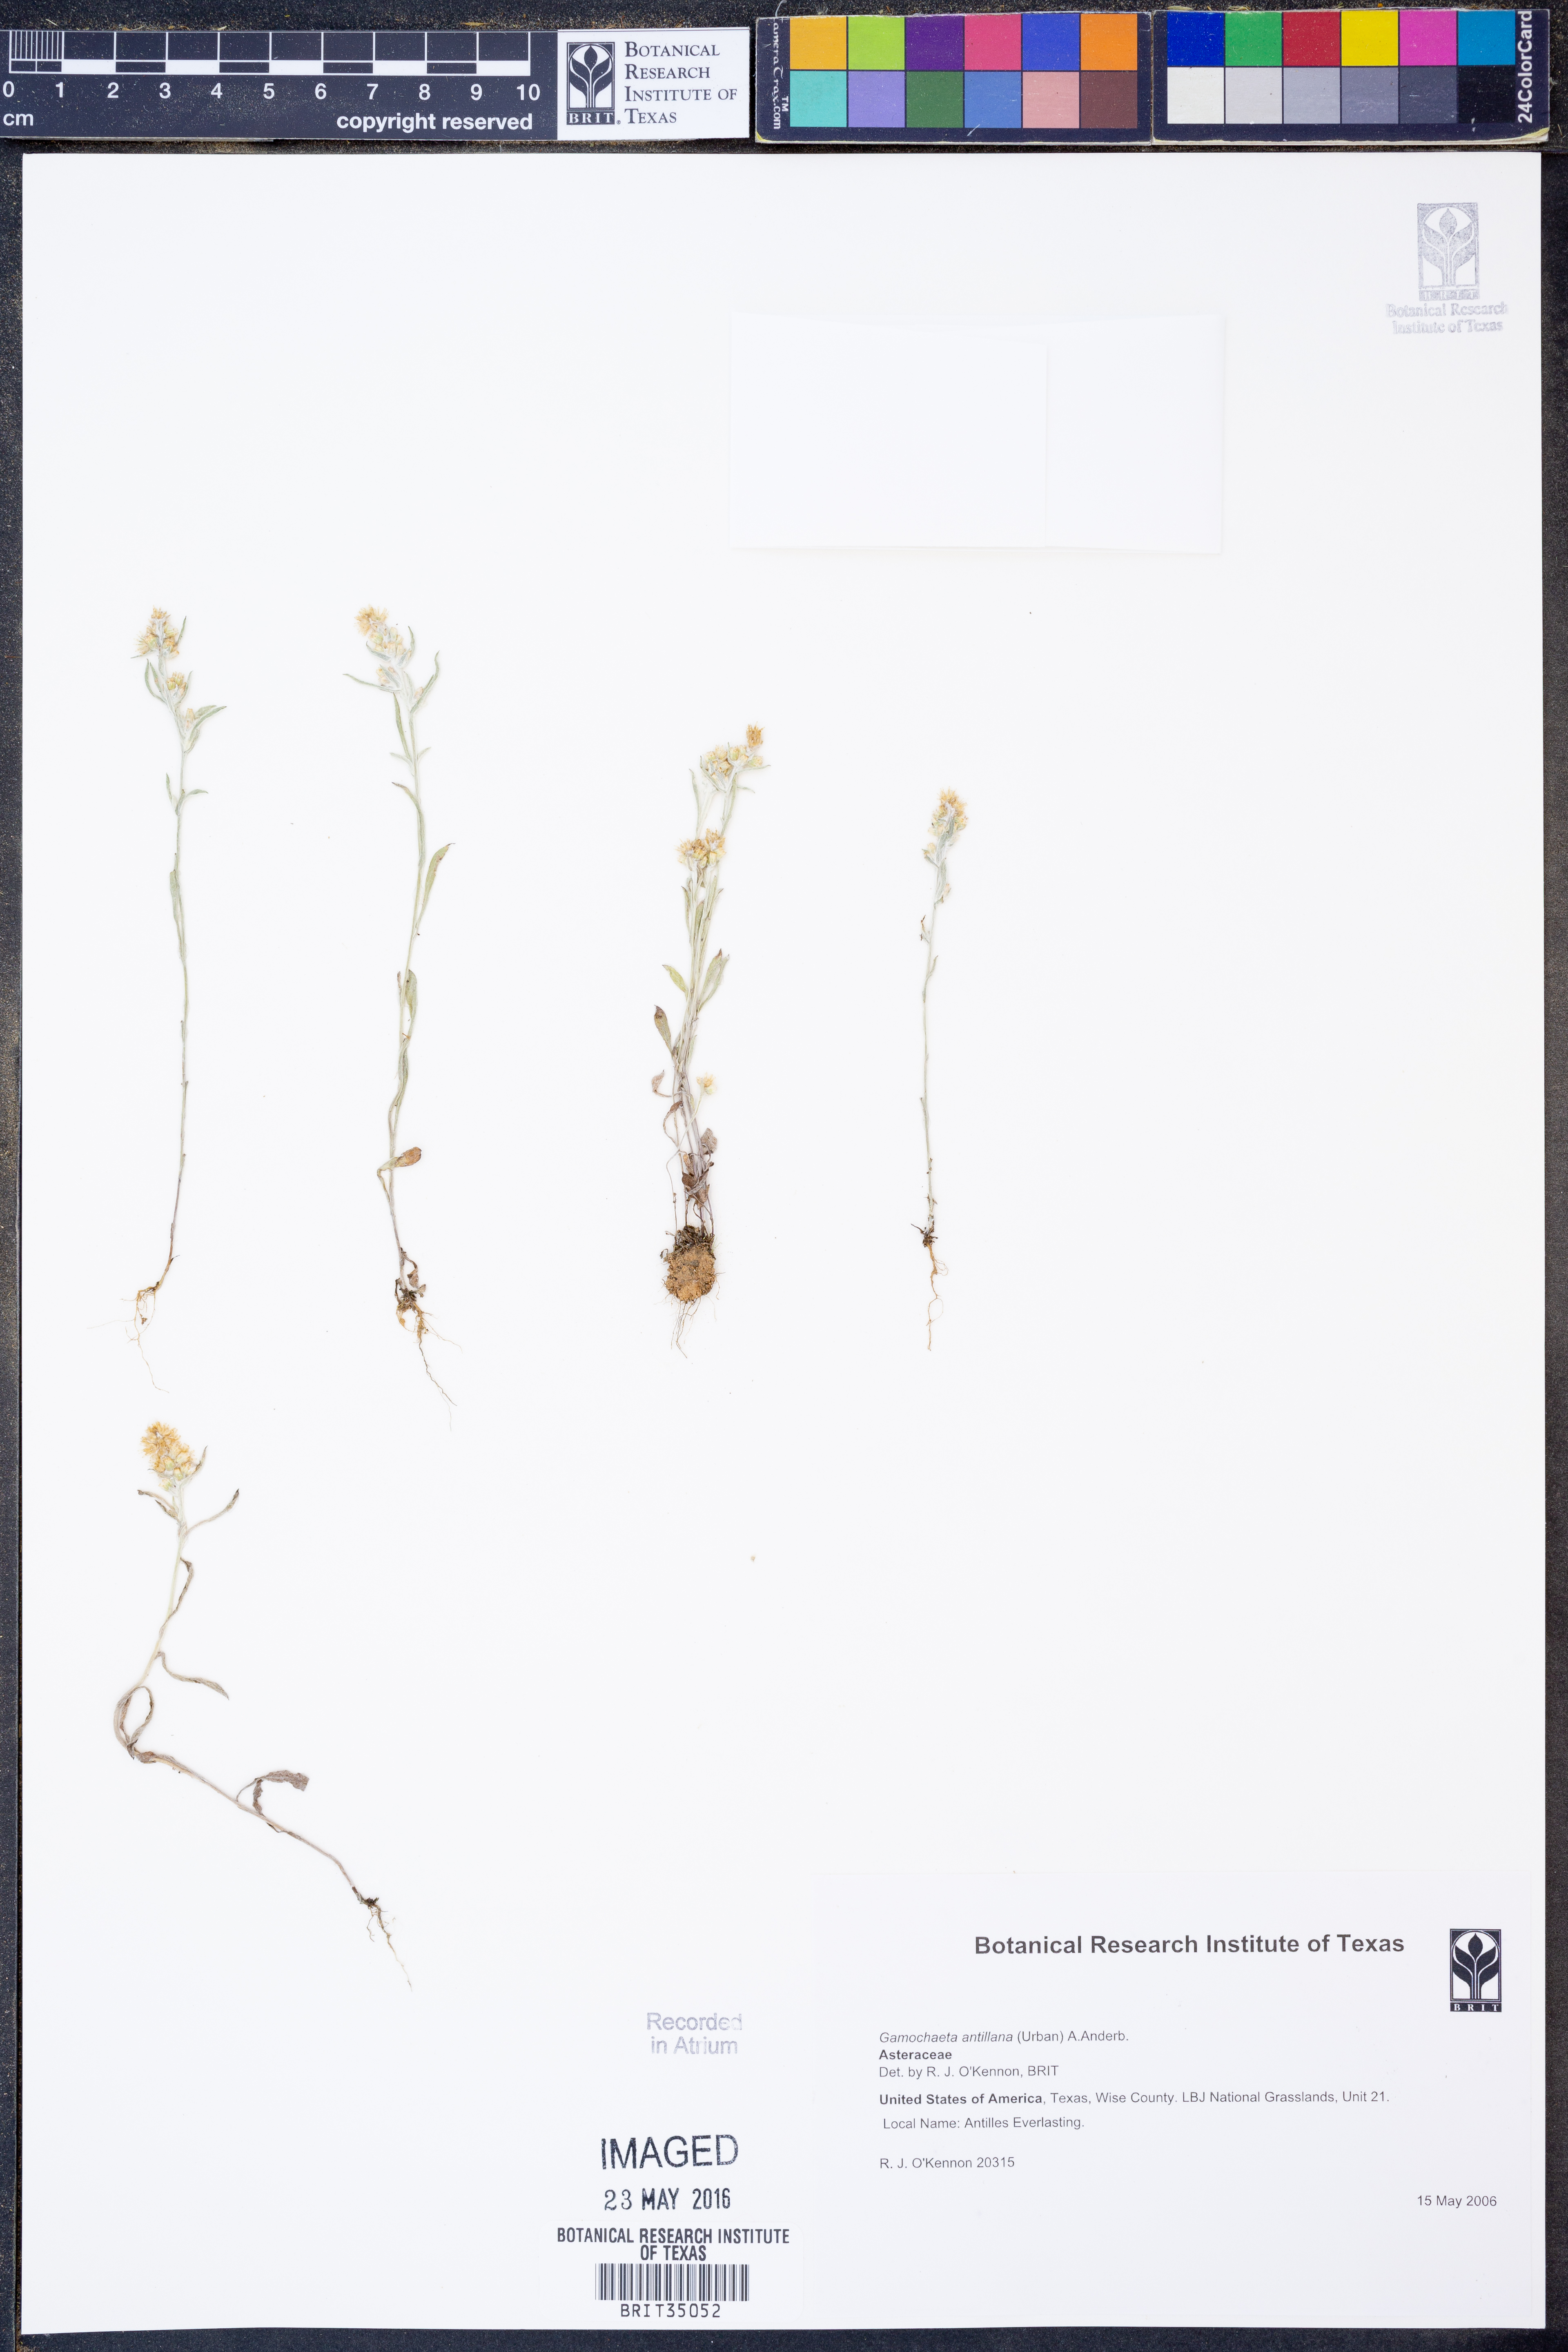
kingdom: Plantae
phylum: Tracheophyta
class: Magnoliopsida
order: Asterales
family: Asteraceae
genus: Gamochaeta
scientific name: Gamochaeta antillana
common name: Delicate everlasting
